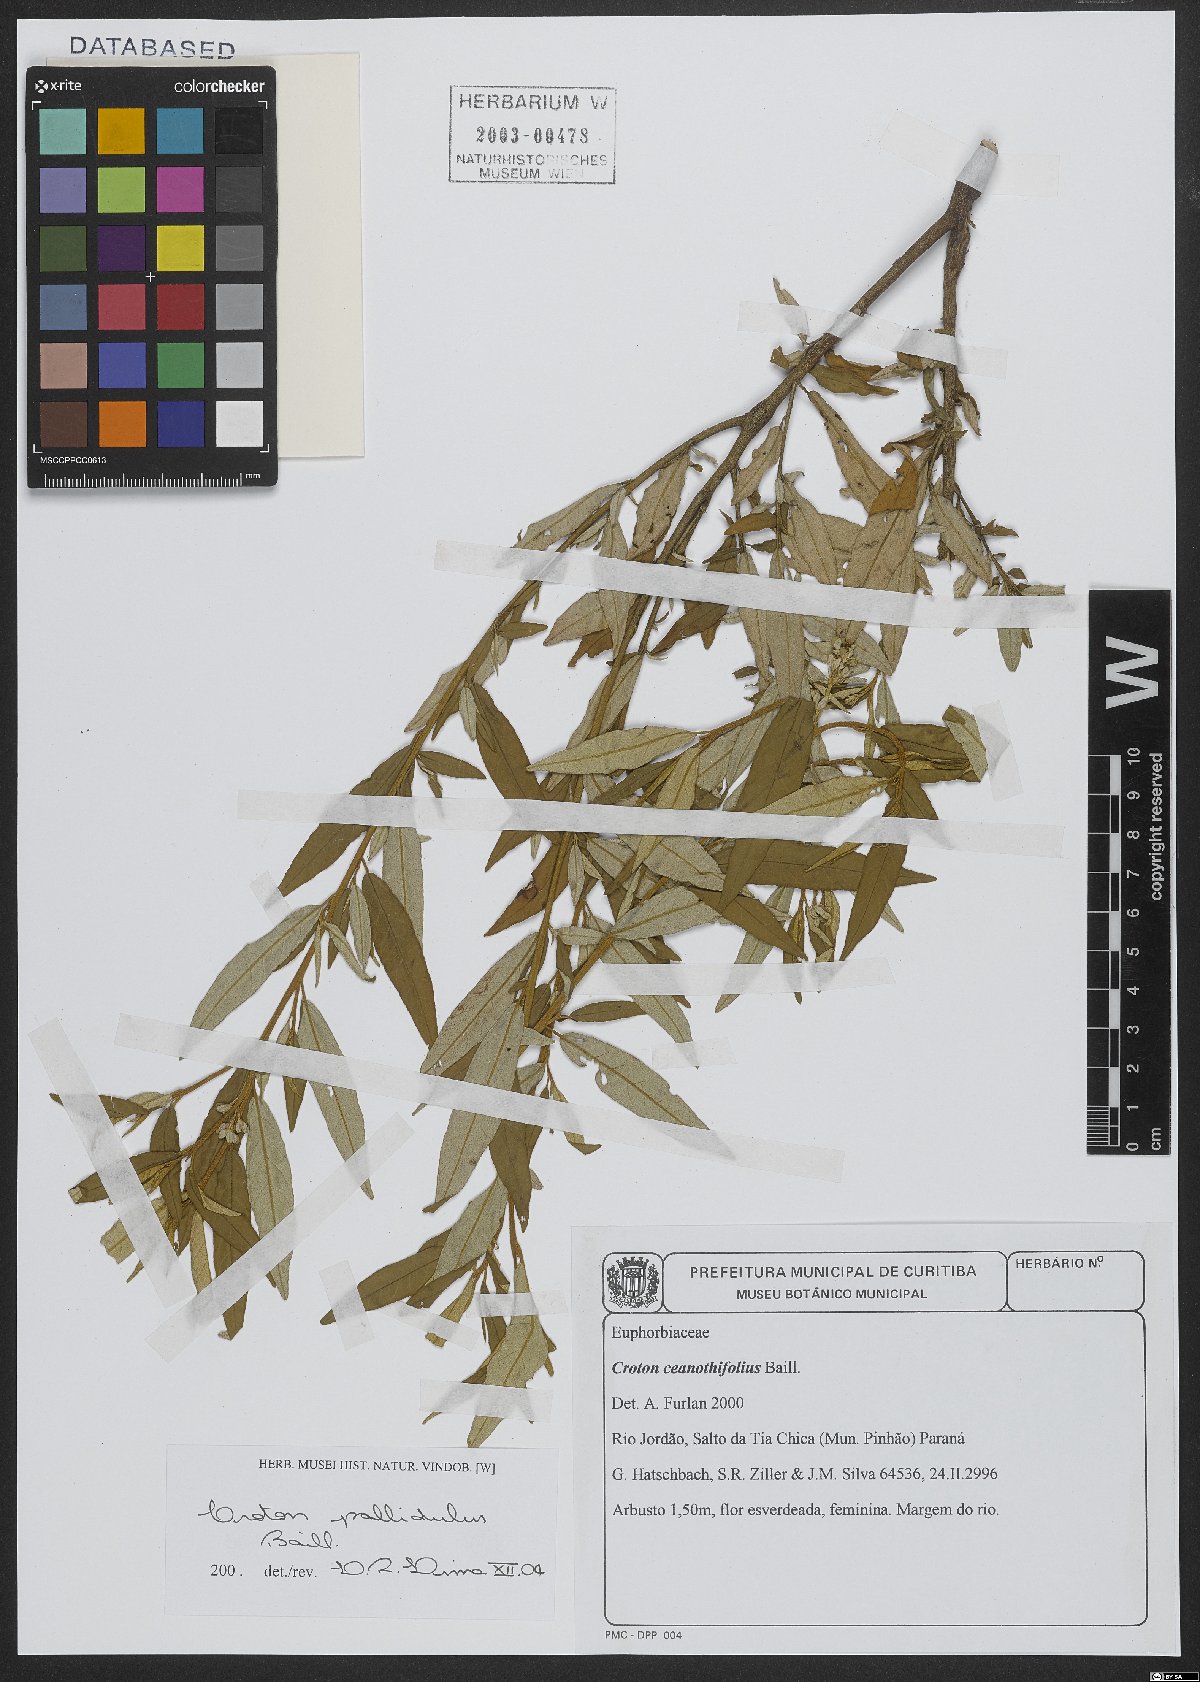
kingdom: Plantae
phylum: Tracheophyta
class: Magnoliopsida
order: Malpighiales
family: Euphorbiaceae
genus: Croton
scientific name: Croton ceanothifolius
